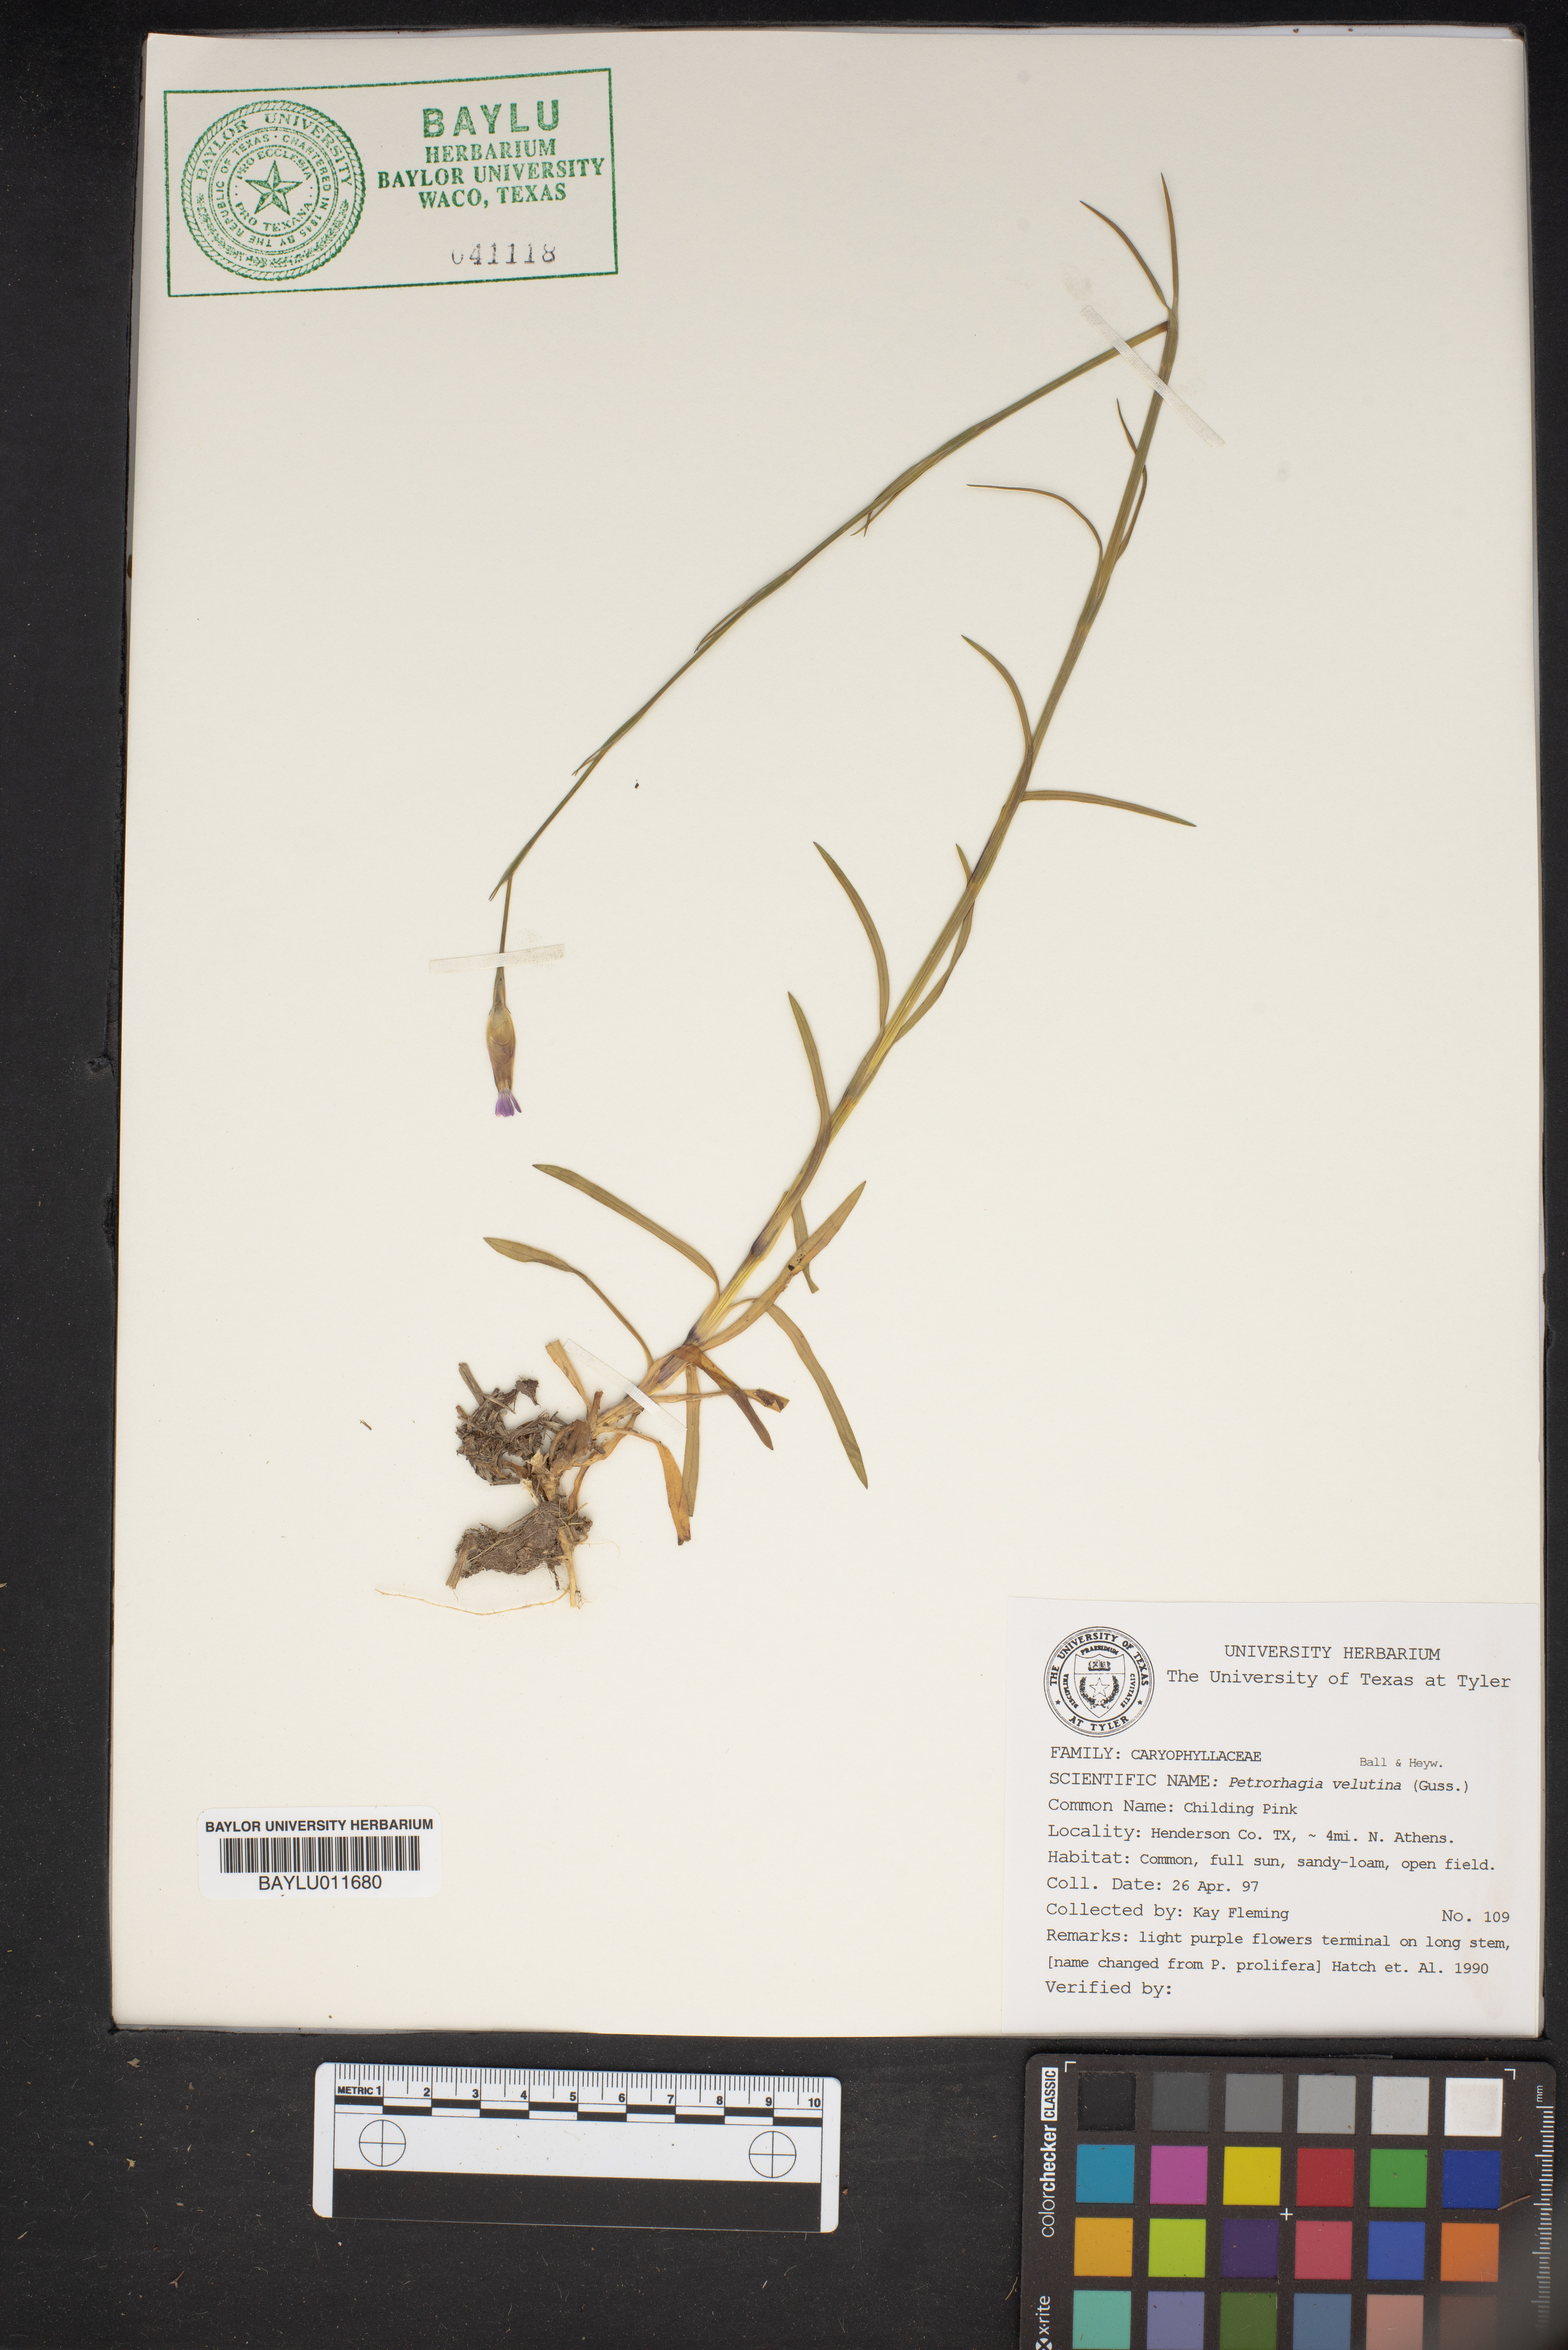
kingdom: Plantae
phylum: Tracheophyta
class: Magnoliopsida
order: Caryophyllales
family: Caryophyllaceae
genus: Petrorhagia
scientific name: Petrorhagia
